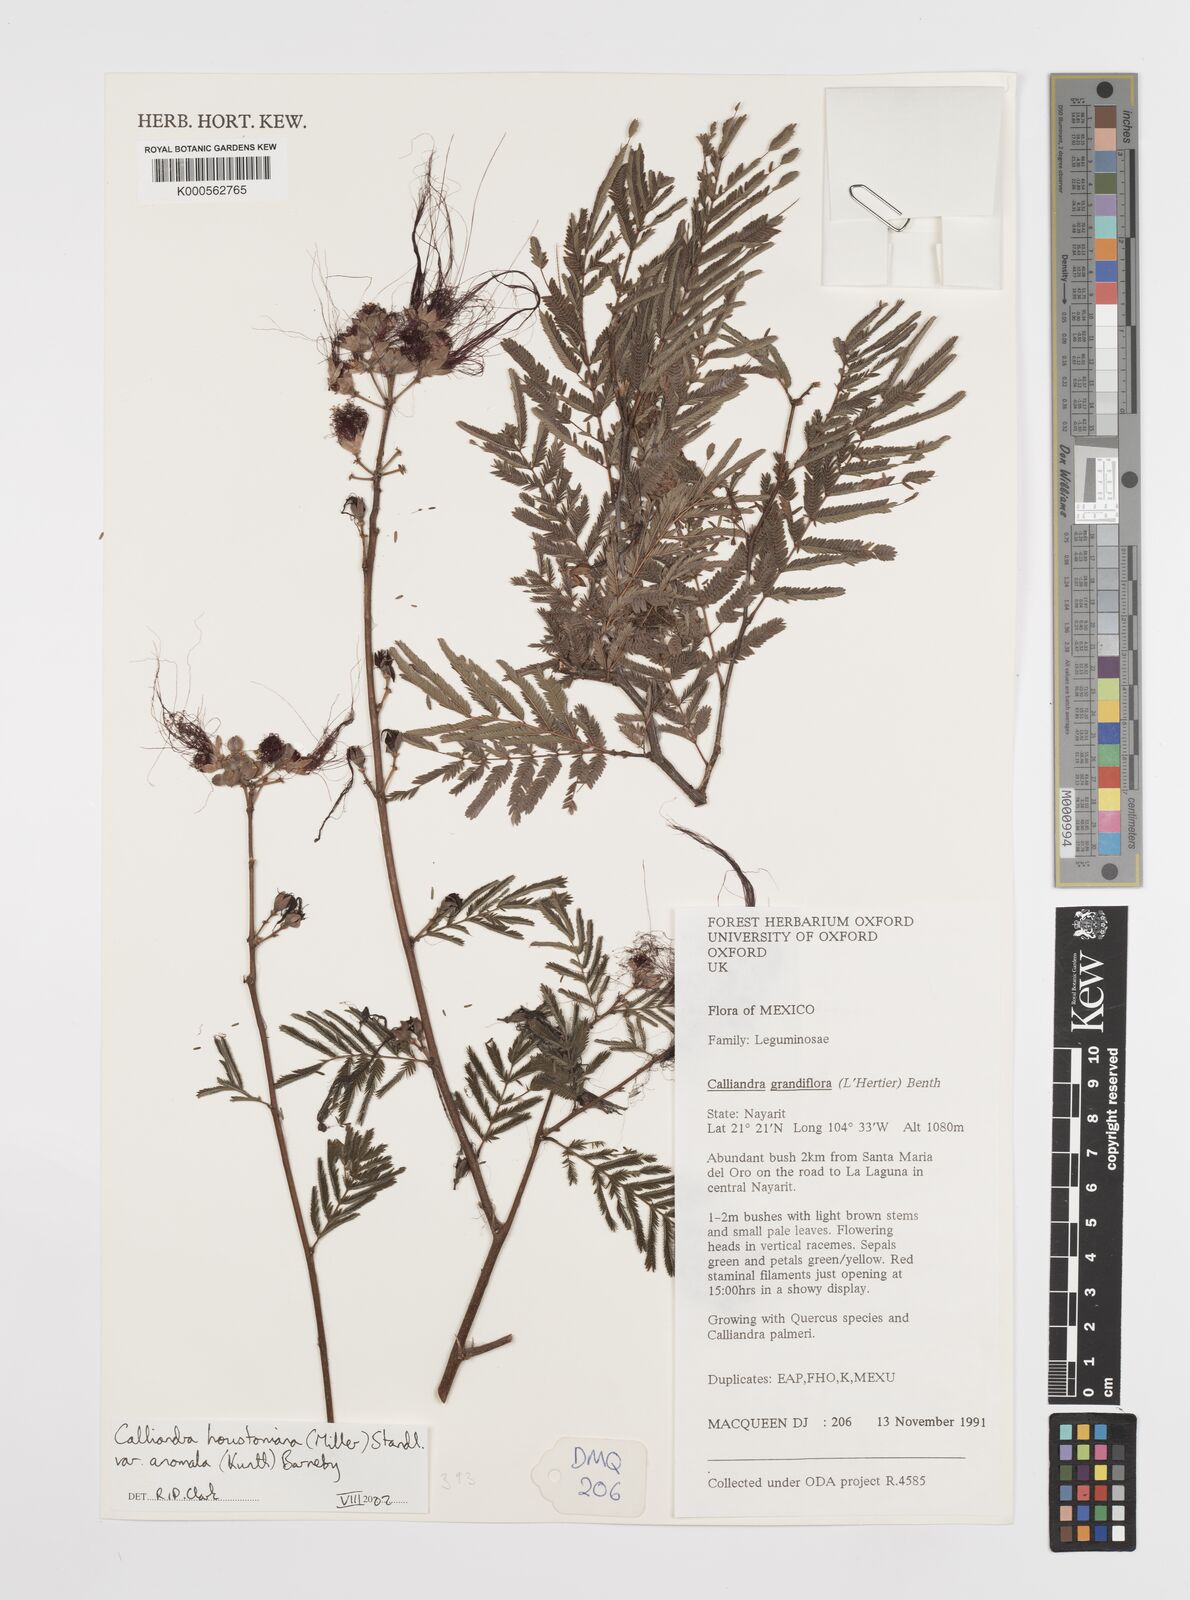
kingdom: Plantae
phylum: Tracheophyta
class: Magnoliopsida
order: Fabales
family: Fabaceae
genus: Calliandra
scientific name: Calliandra houstoniana
